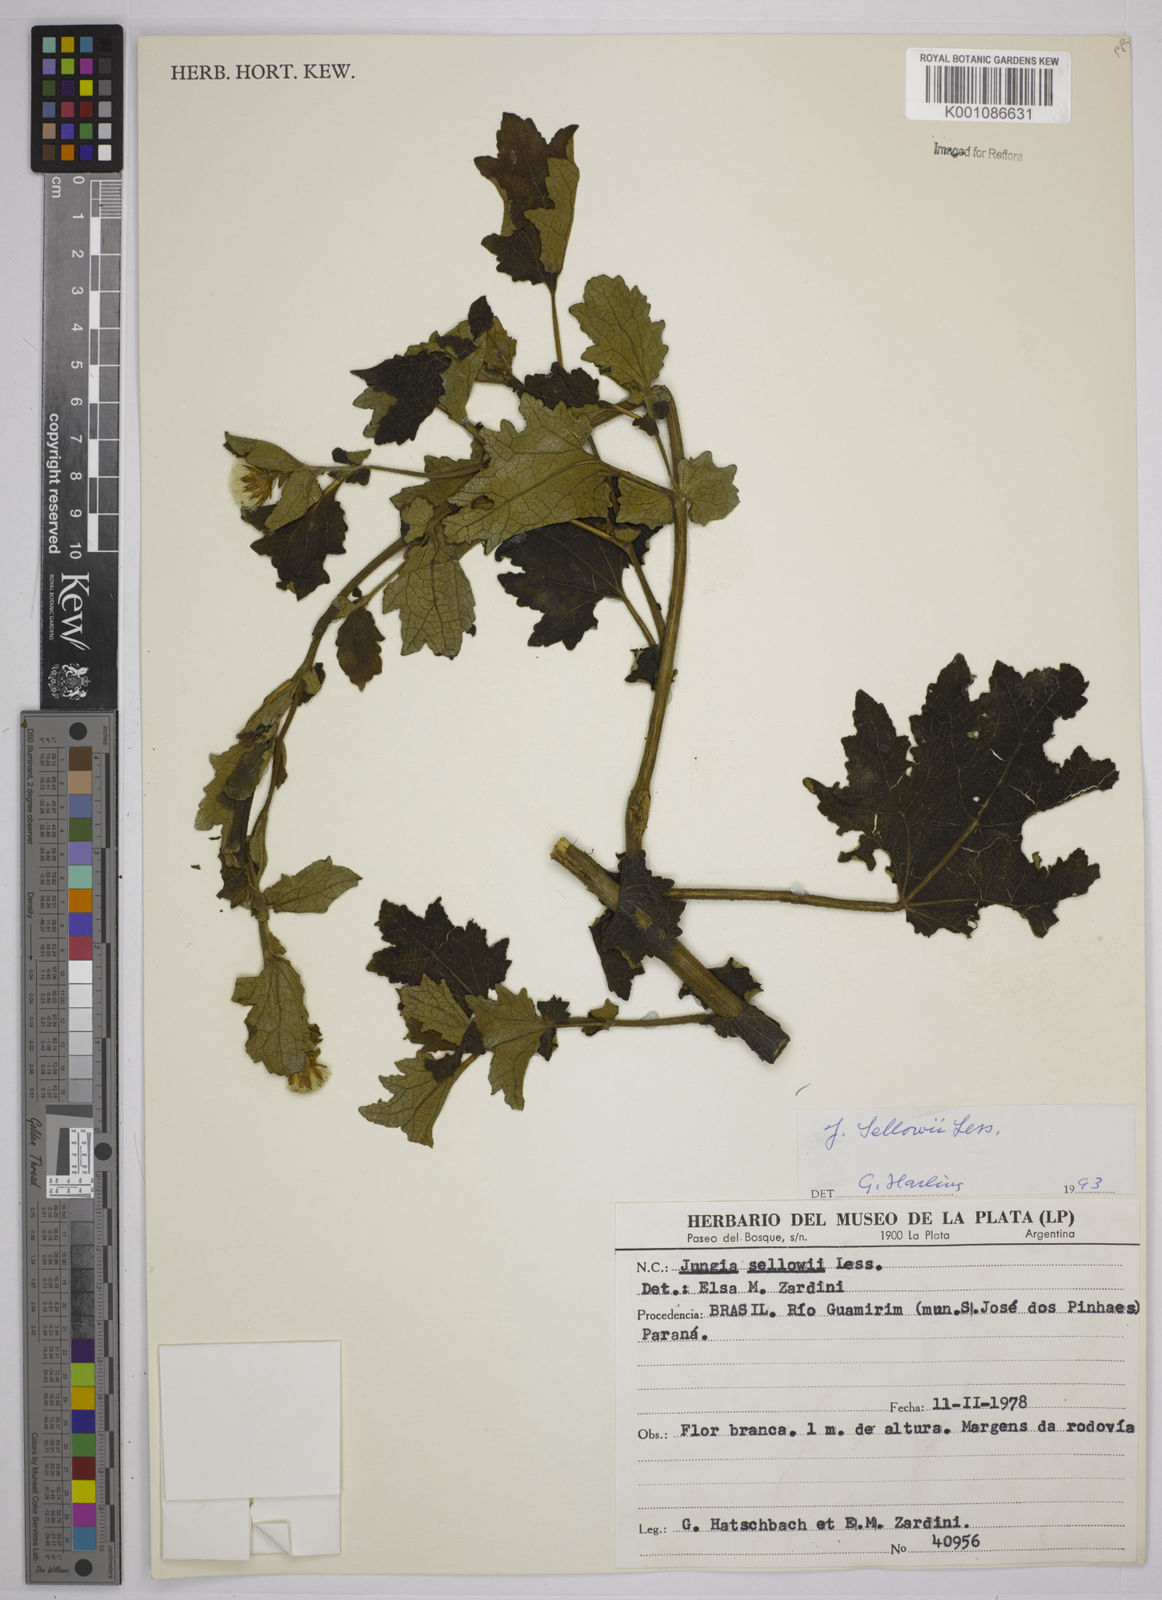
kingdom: Plantae
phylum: Tracheophyta
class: Magnoliopsida
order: Asterales
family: Asteraceae
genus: Jungia
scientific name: Jungia sellowii
